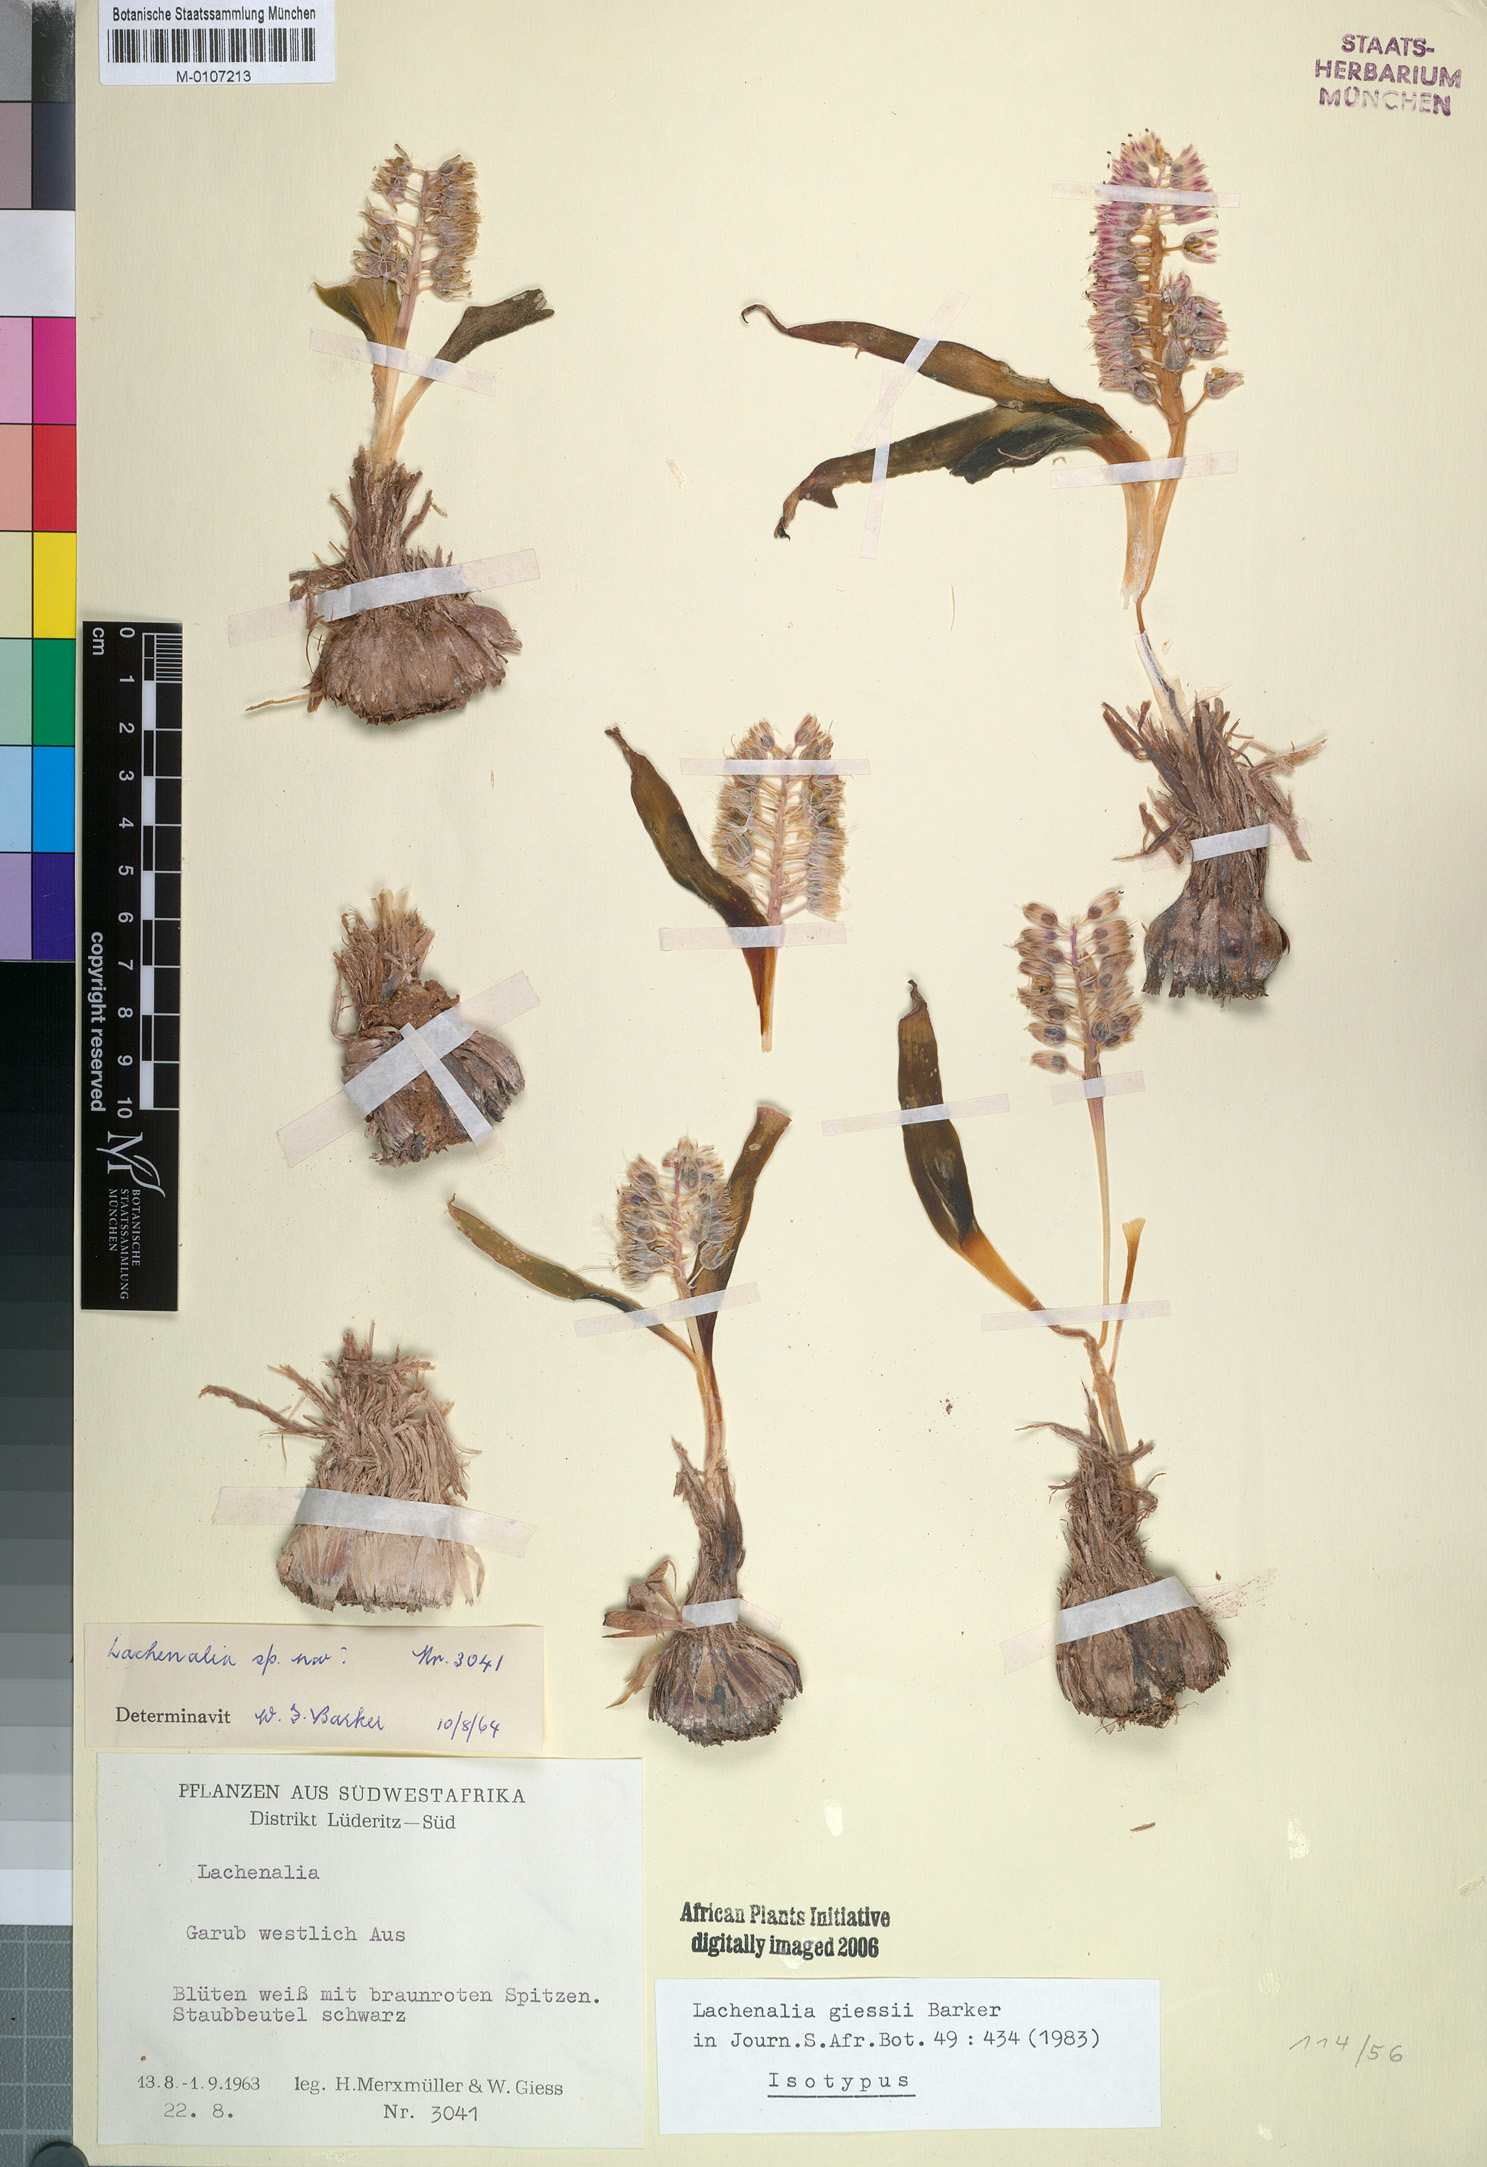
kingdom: Plantae
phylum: Tracheophyta
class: Liliopsida
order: Asparagales
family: Asparagaceae
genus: Lachenalia
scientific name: Lachenalia giessii
